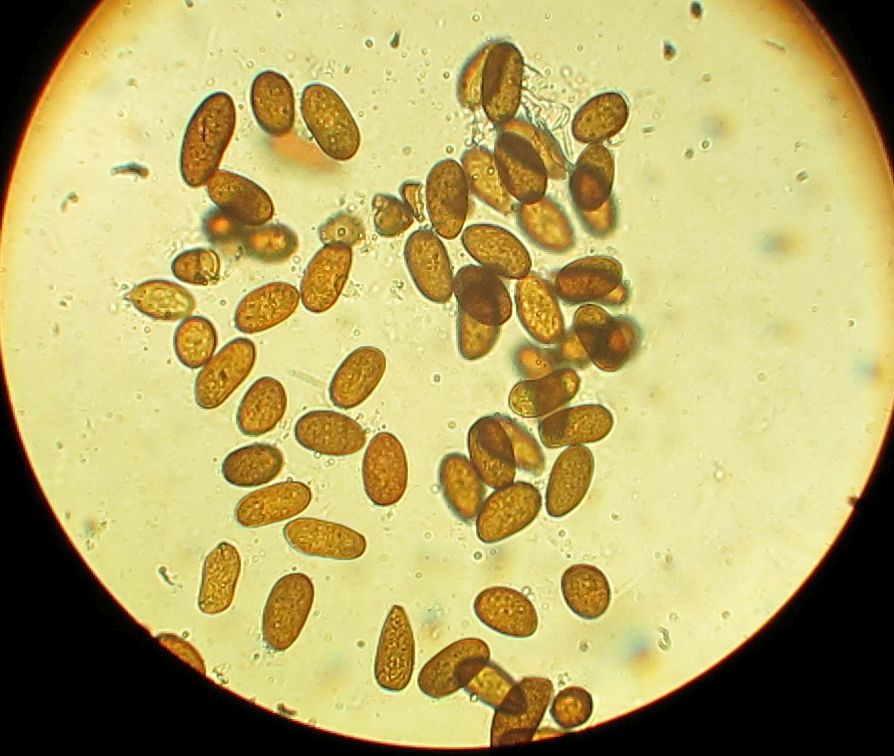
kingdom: Fungi
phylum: Ascomycota
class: Dothideomycetes
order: Botryosphaeriales
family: Botryosphaeriaceae
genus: Sphaeropsis
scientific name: Sphaeropsis sapinea
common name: Sphaeropsis blight
